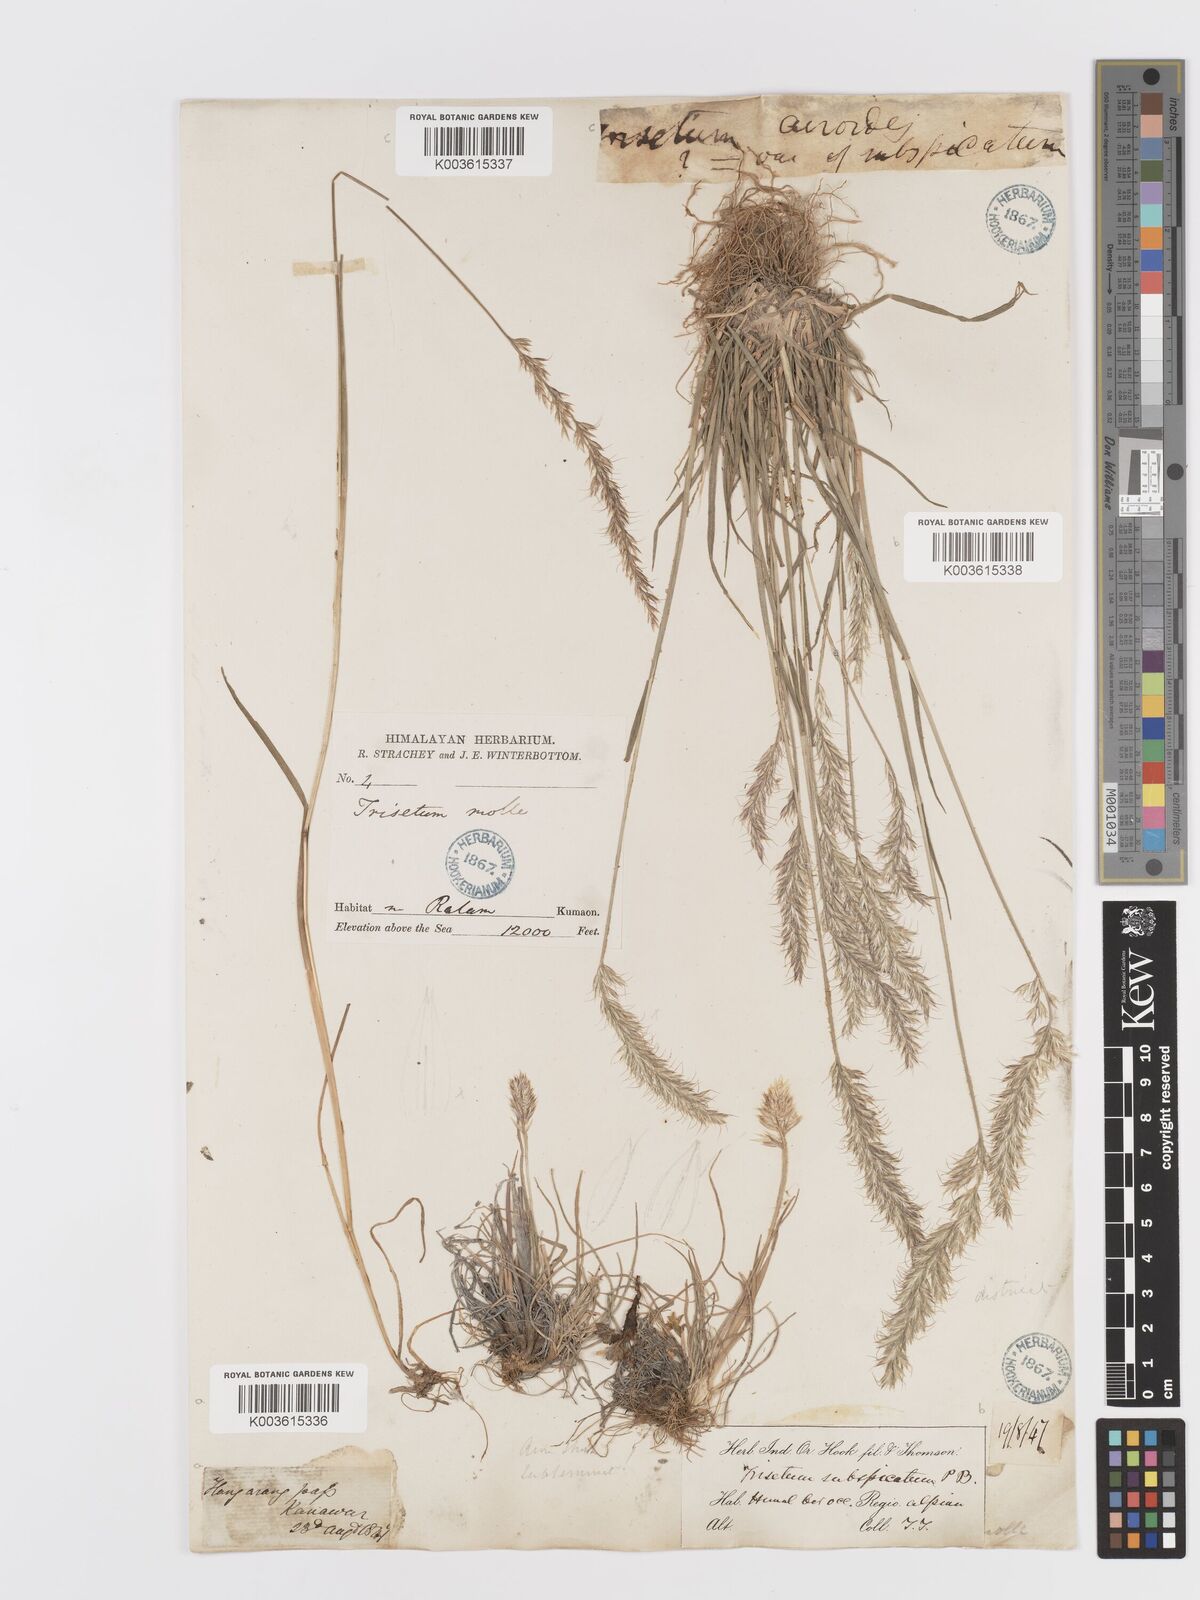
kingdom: Plantae
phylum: Tracheophyta
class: Liliopsida
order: Poales
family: Poaceae
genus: Trisetum
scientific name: Trisetum clarkei
